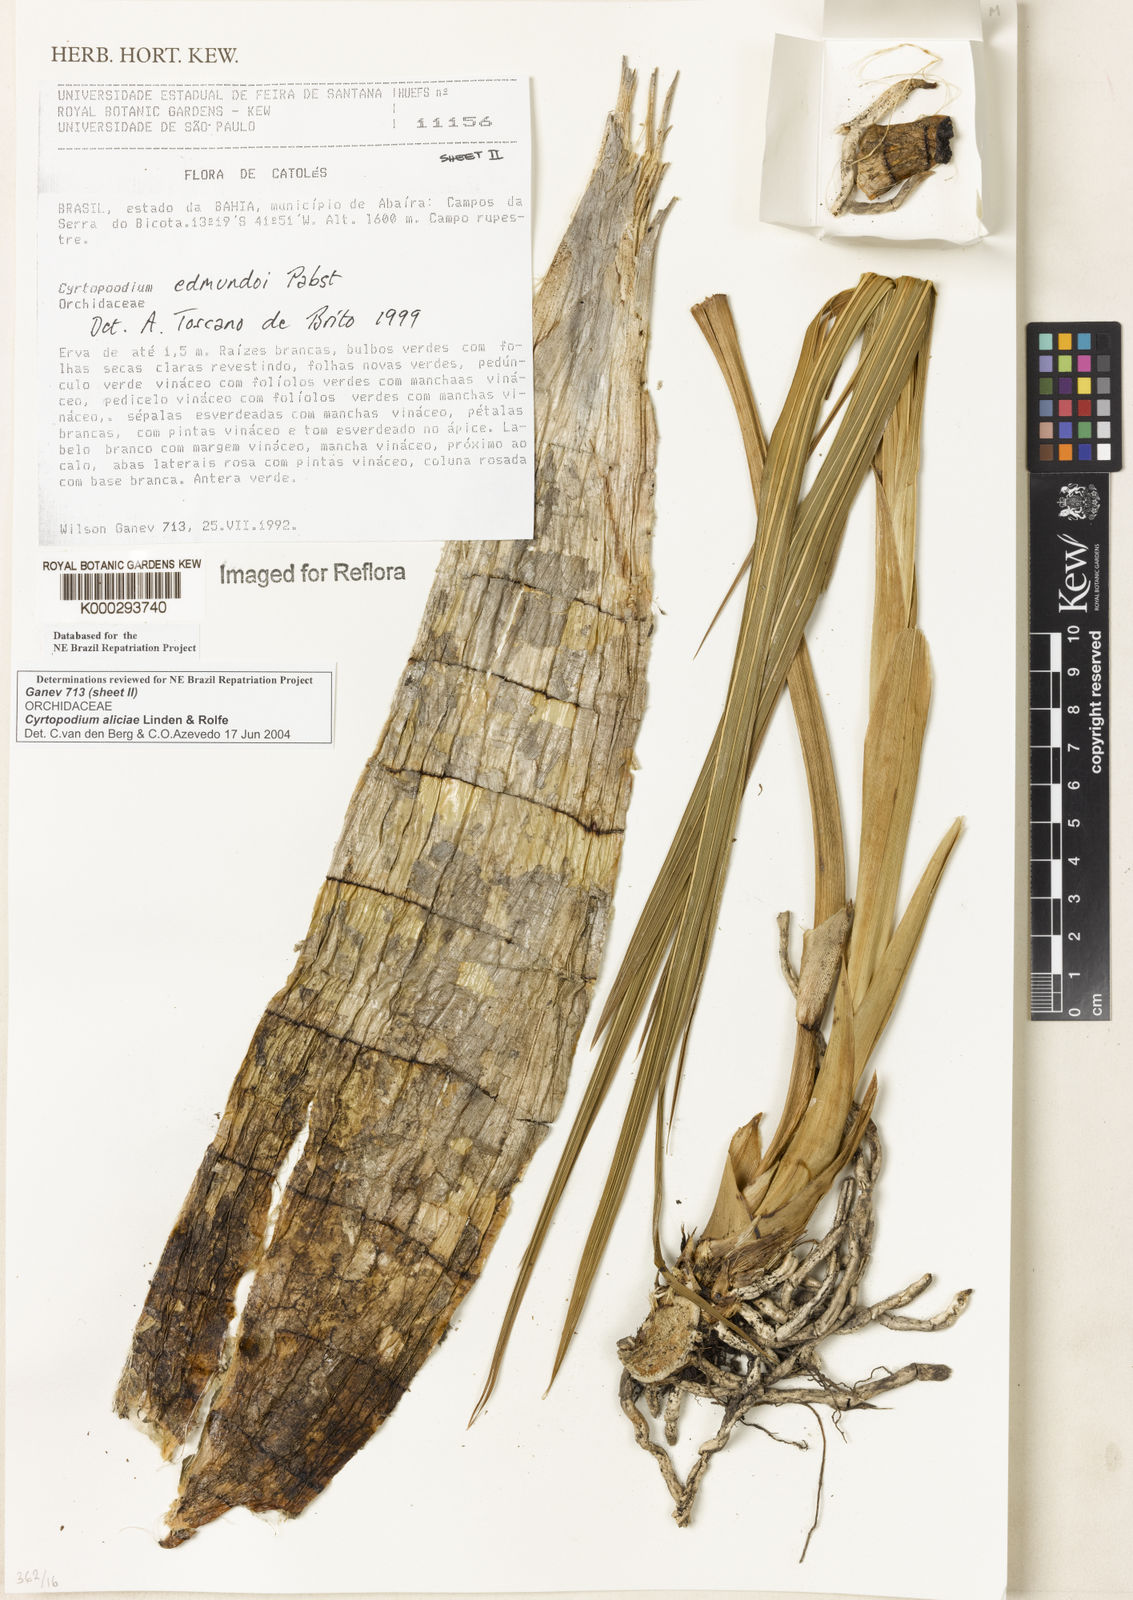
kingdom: Plantae
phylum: Tracheophyta
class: Liliopsida
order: Asparagales
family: Orchidaceae
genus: Cyrtopodium
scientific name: Cyrtopodium aliciae
